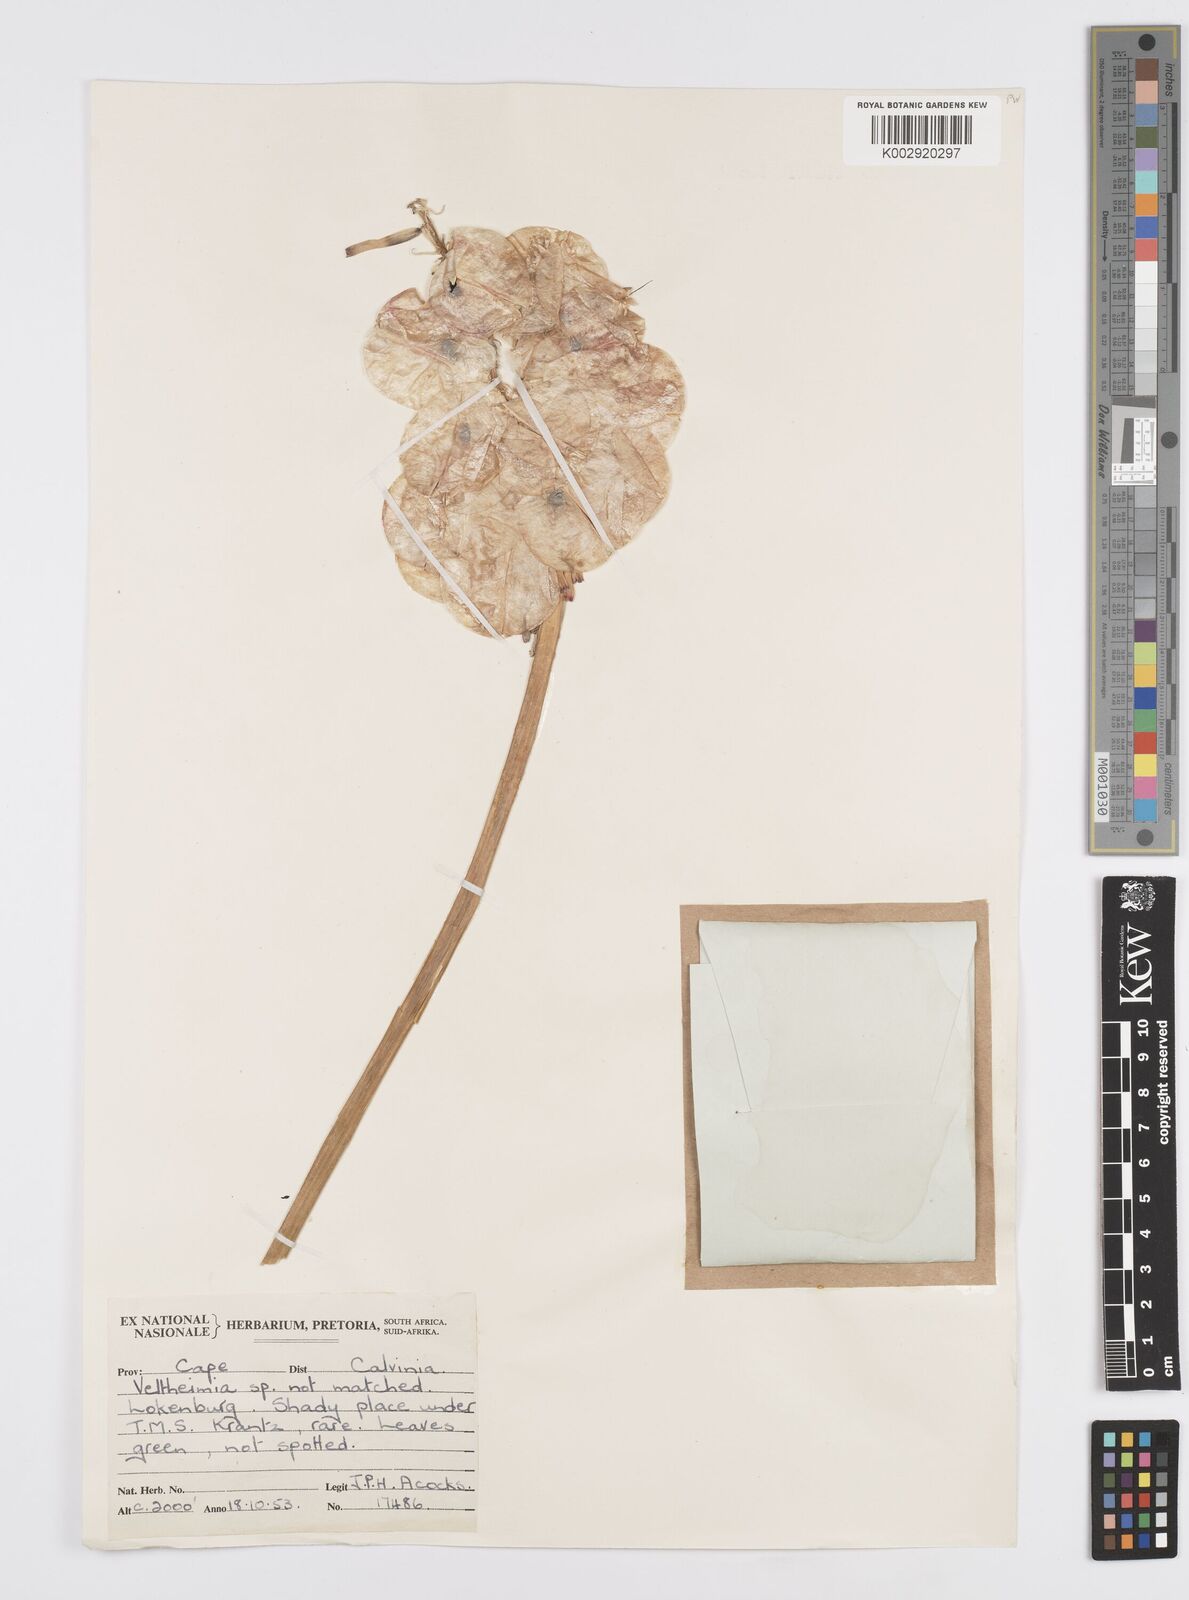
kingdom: Plantae
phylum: Tracheophyta
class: Liliopsida
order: Asparagales
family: Asparagaceae
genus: Veltheimia
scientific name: Veltheimia capensis
